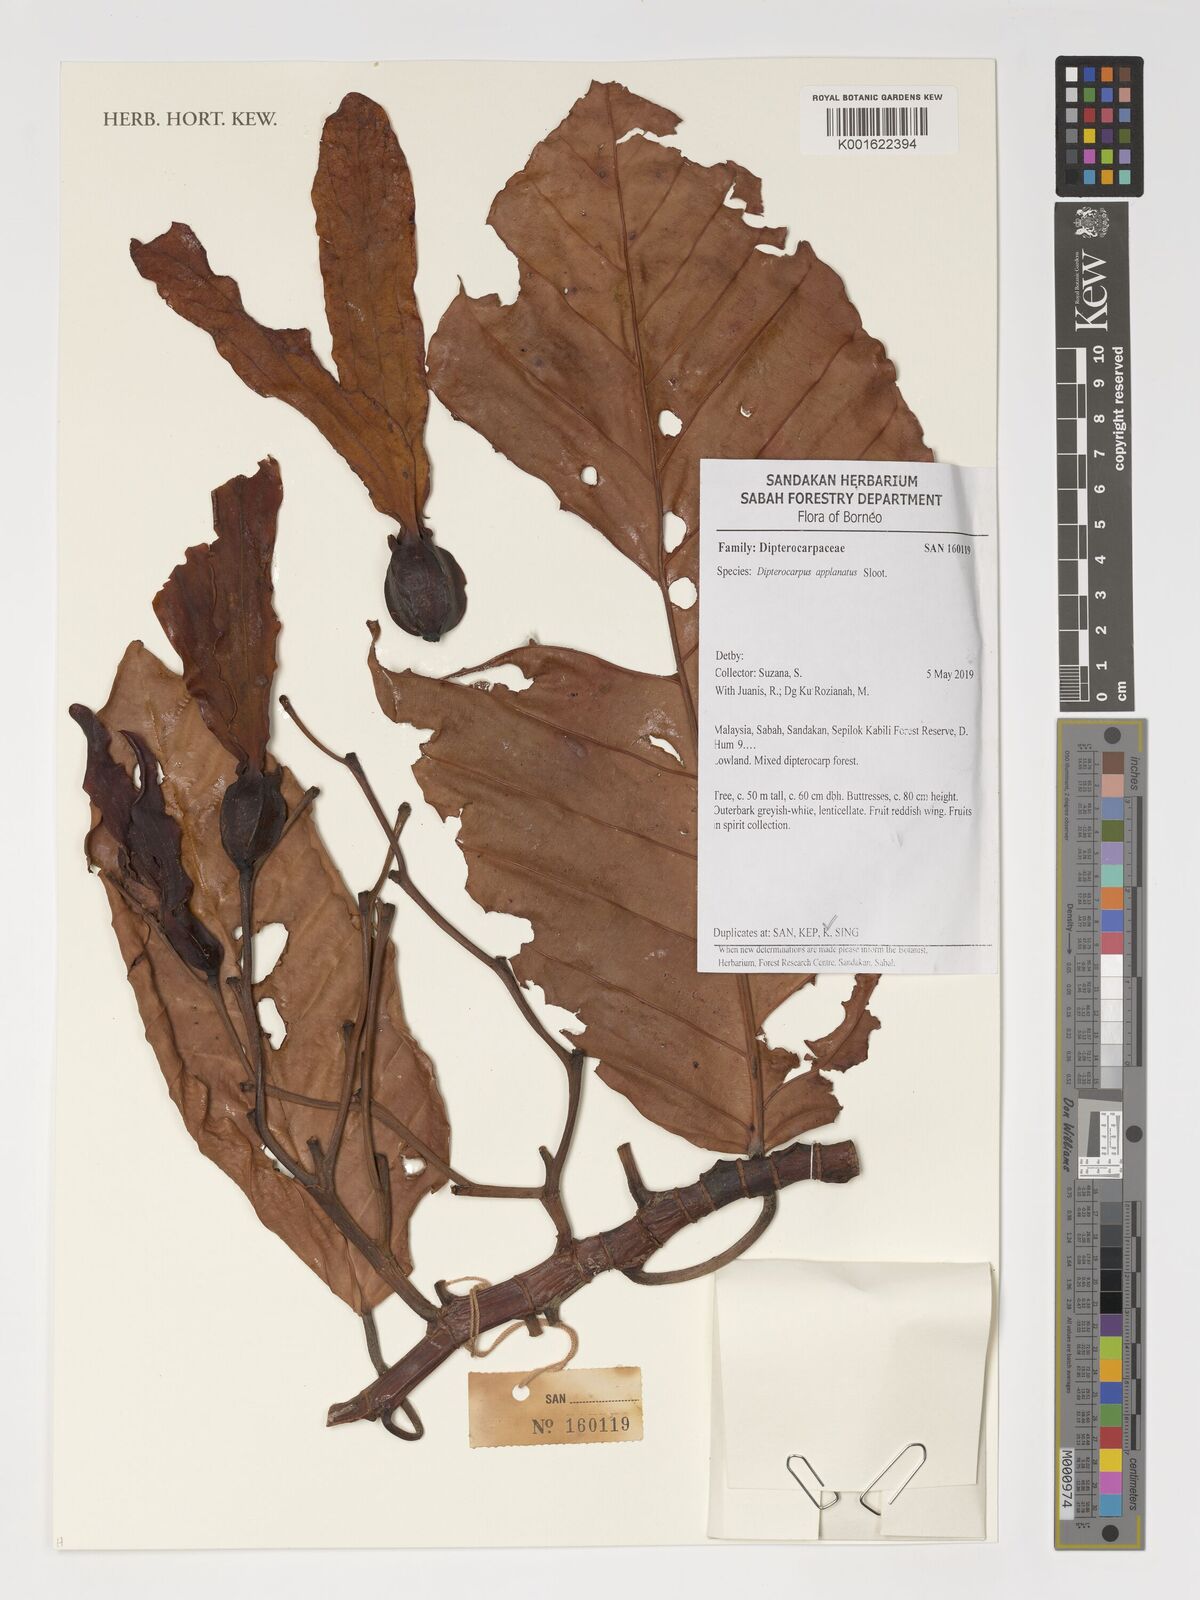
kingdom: Plantae
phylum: Tracheophyta
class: Magnoliopsida
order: Malvales
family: Dipterocarpaceae
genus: Dipterocarpus
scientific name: Dipterocarpus applanatus
